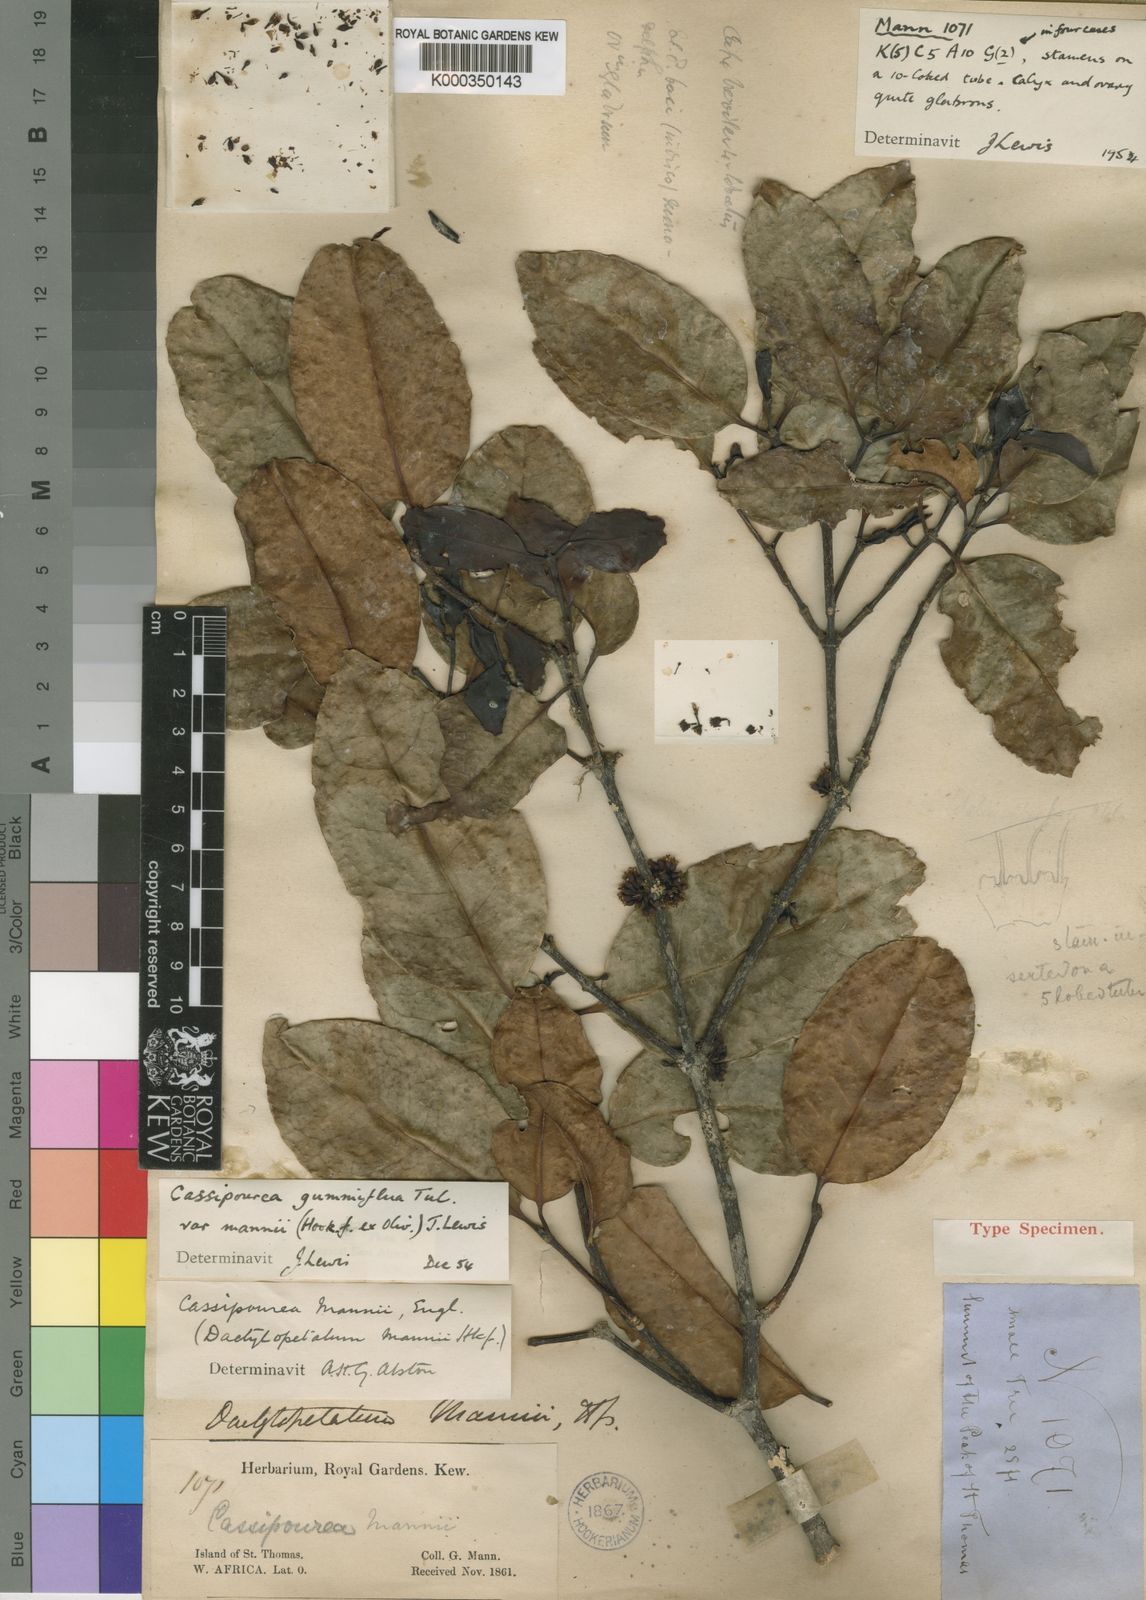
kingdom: Plantae
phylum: Tracheophyta
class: Magnoliopsida
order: Malpighiales
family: Rhizophoraceae
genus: Cassipourea
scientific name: Cassipourea gummiflua
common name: Large-leaved onionwood
